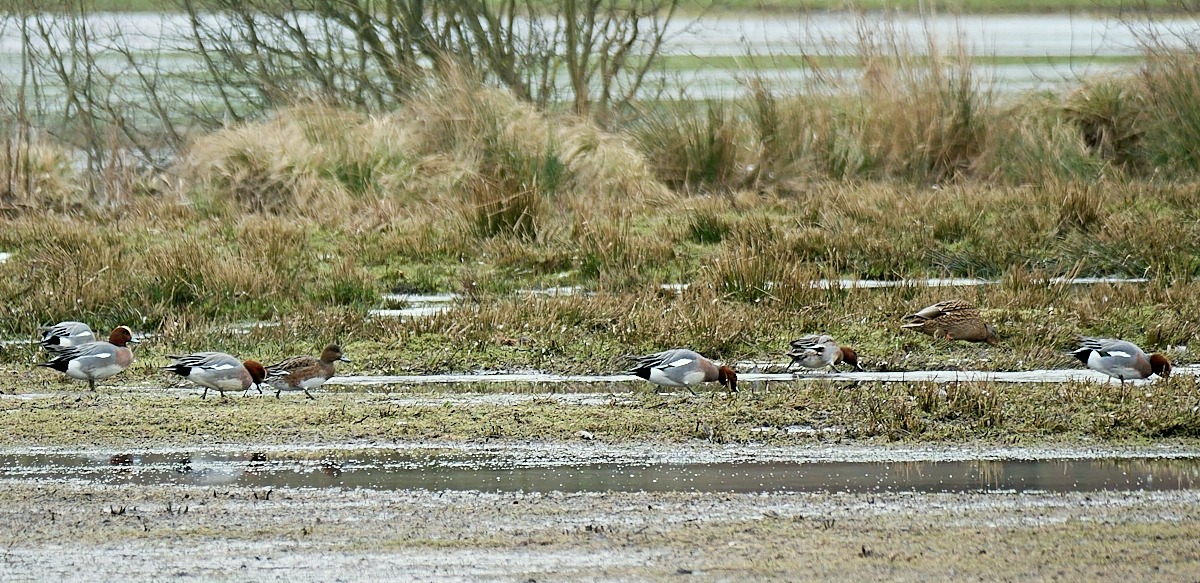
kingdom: Animalia
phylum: Chordata
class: Aves
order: Anseriformes
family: Anatidae
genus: Mareca
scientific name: Mareca penelope
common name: Pibeand
